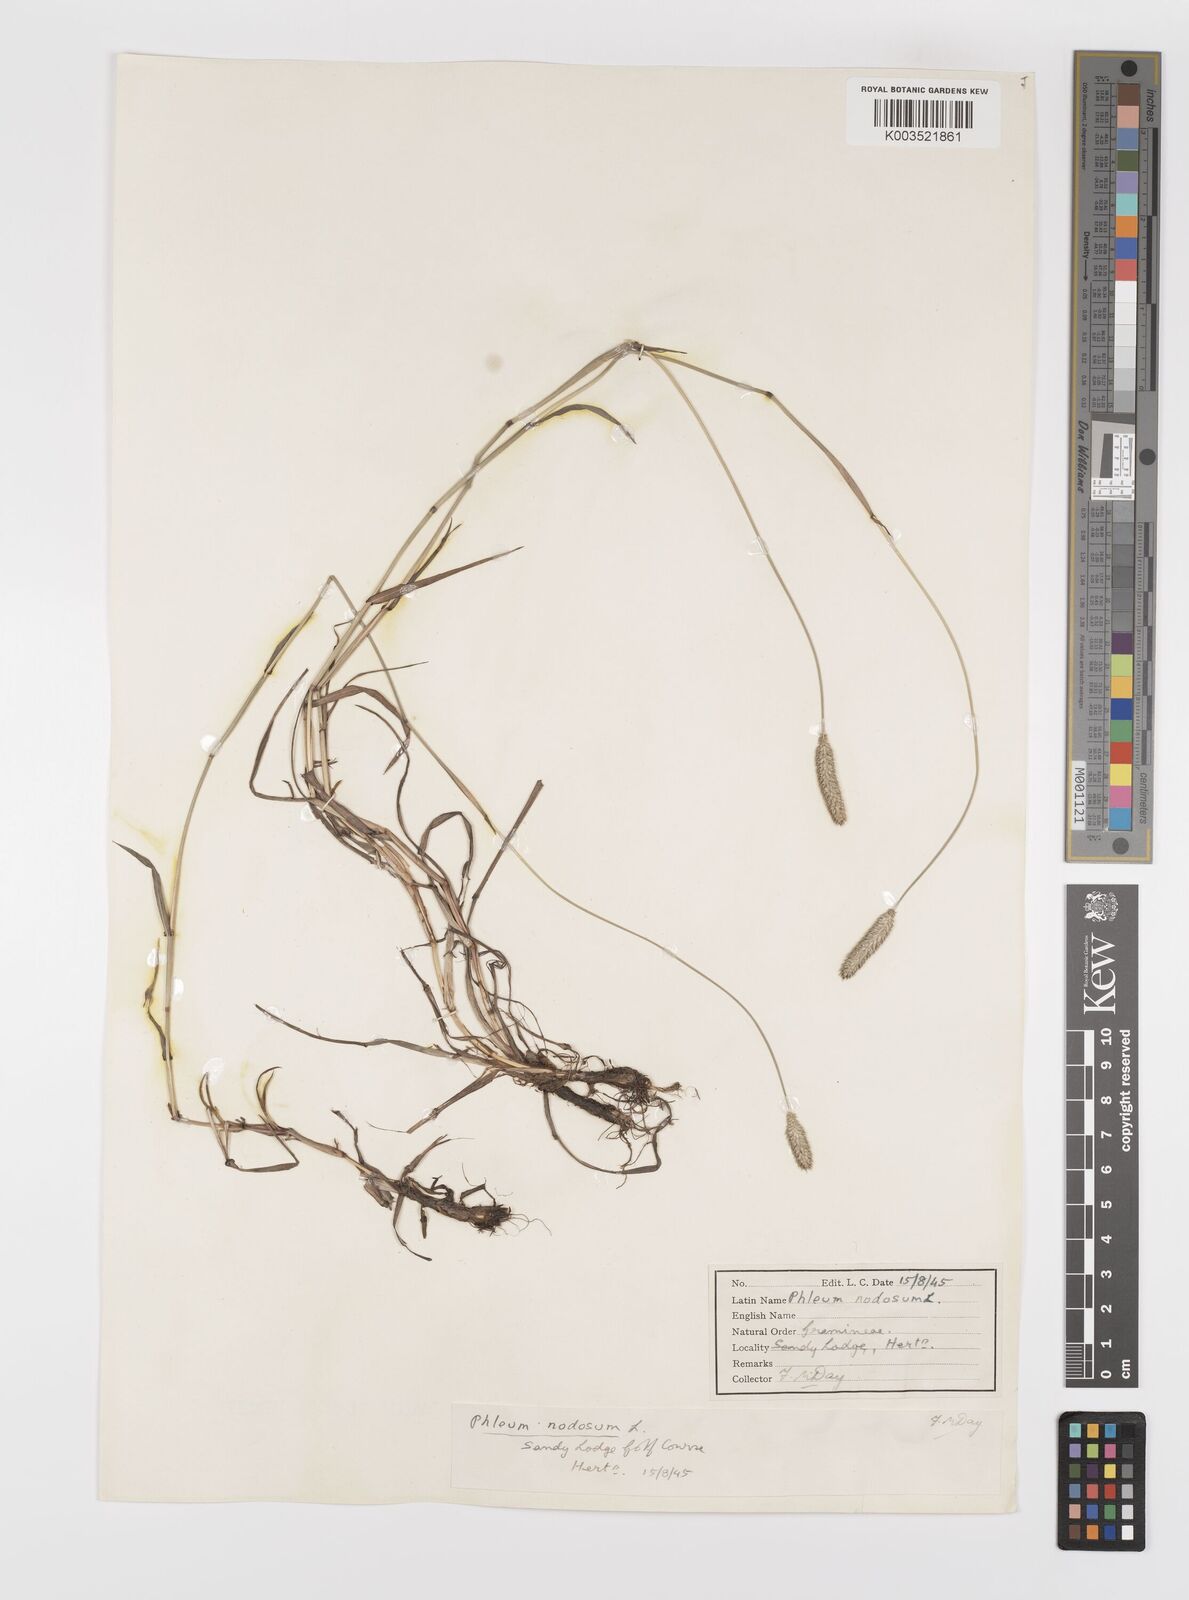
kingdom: Plantae
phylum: Tracheophyta
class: Liliopsida
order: Poales
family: Poaceae
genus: Phleum
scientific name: Phleum bertolonii
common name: Smaller cat's-tail
